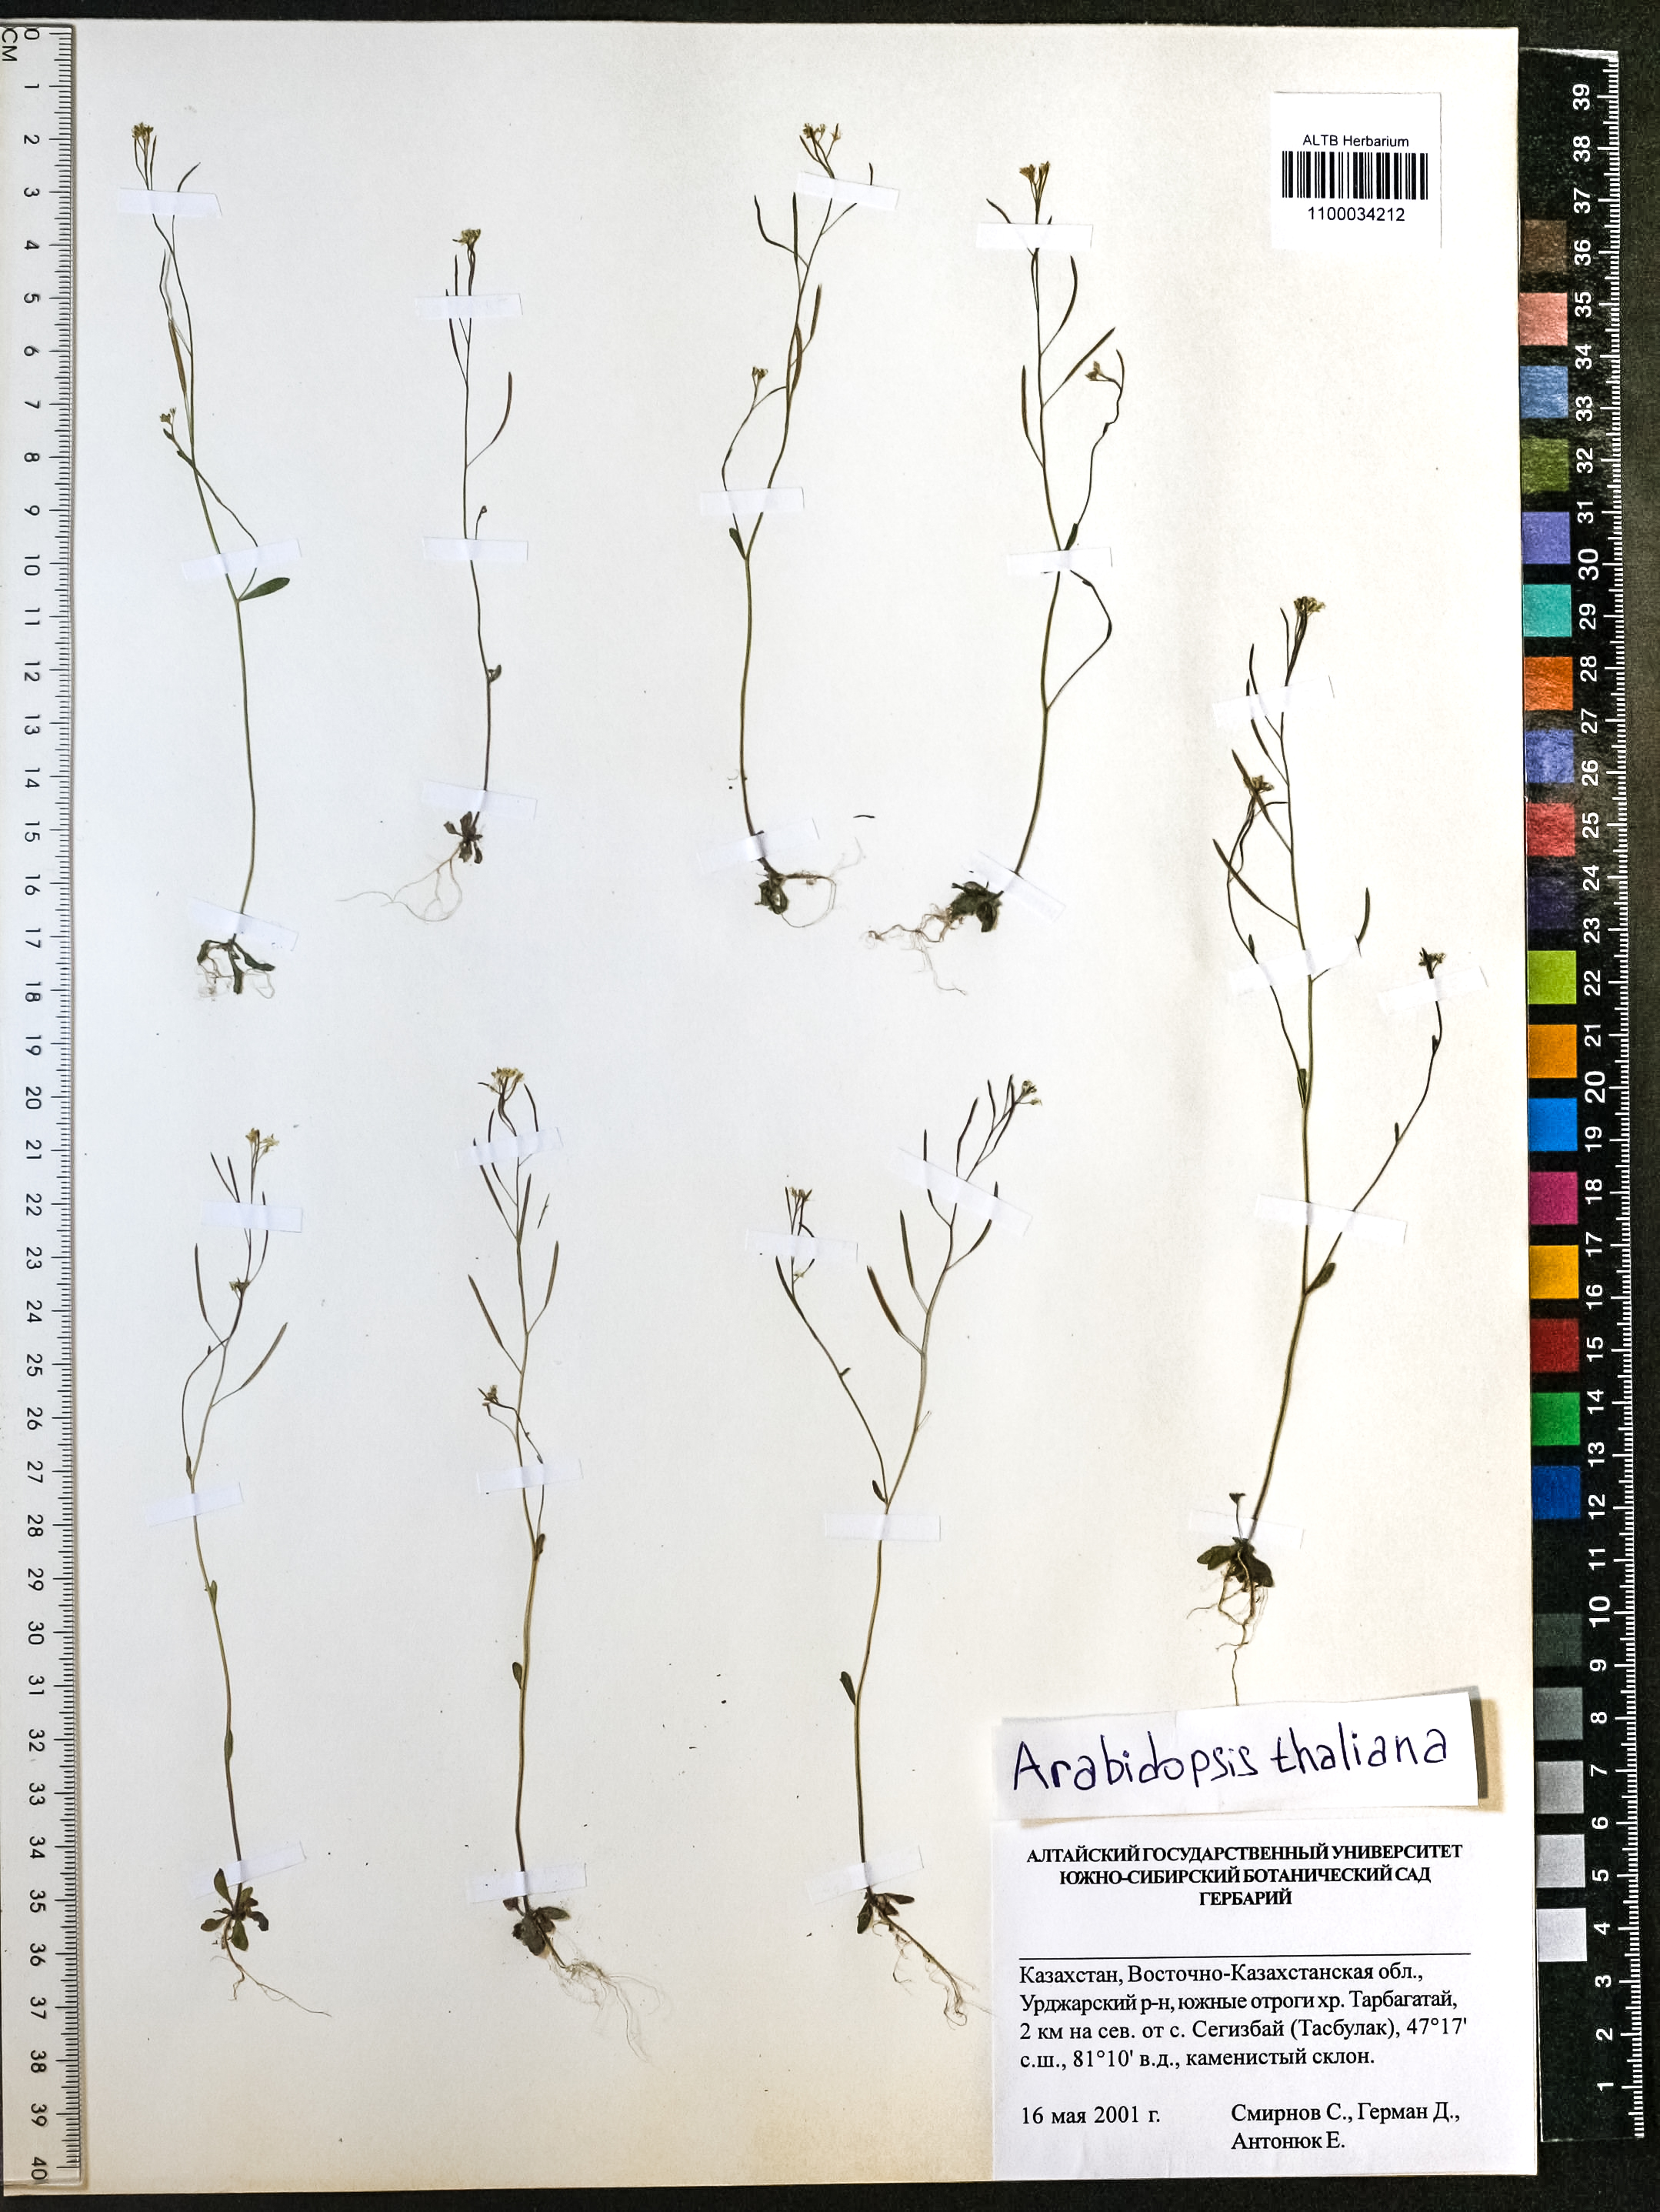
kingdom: Plantae
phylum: Tracheophyta
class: Magnoliopsida
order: Brassicales
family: Brassicaceae
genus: Arabidopsis
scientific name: Arabidopsis thaliana
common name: Thale cress
